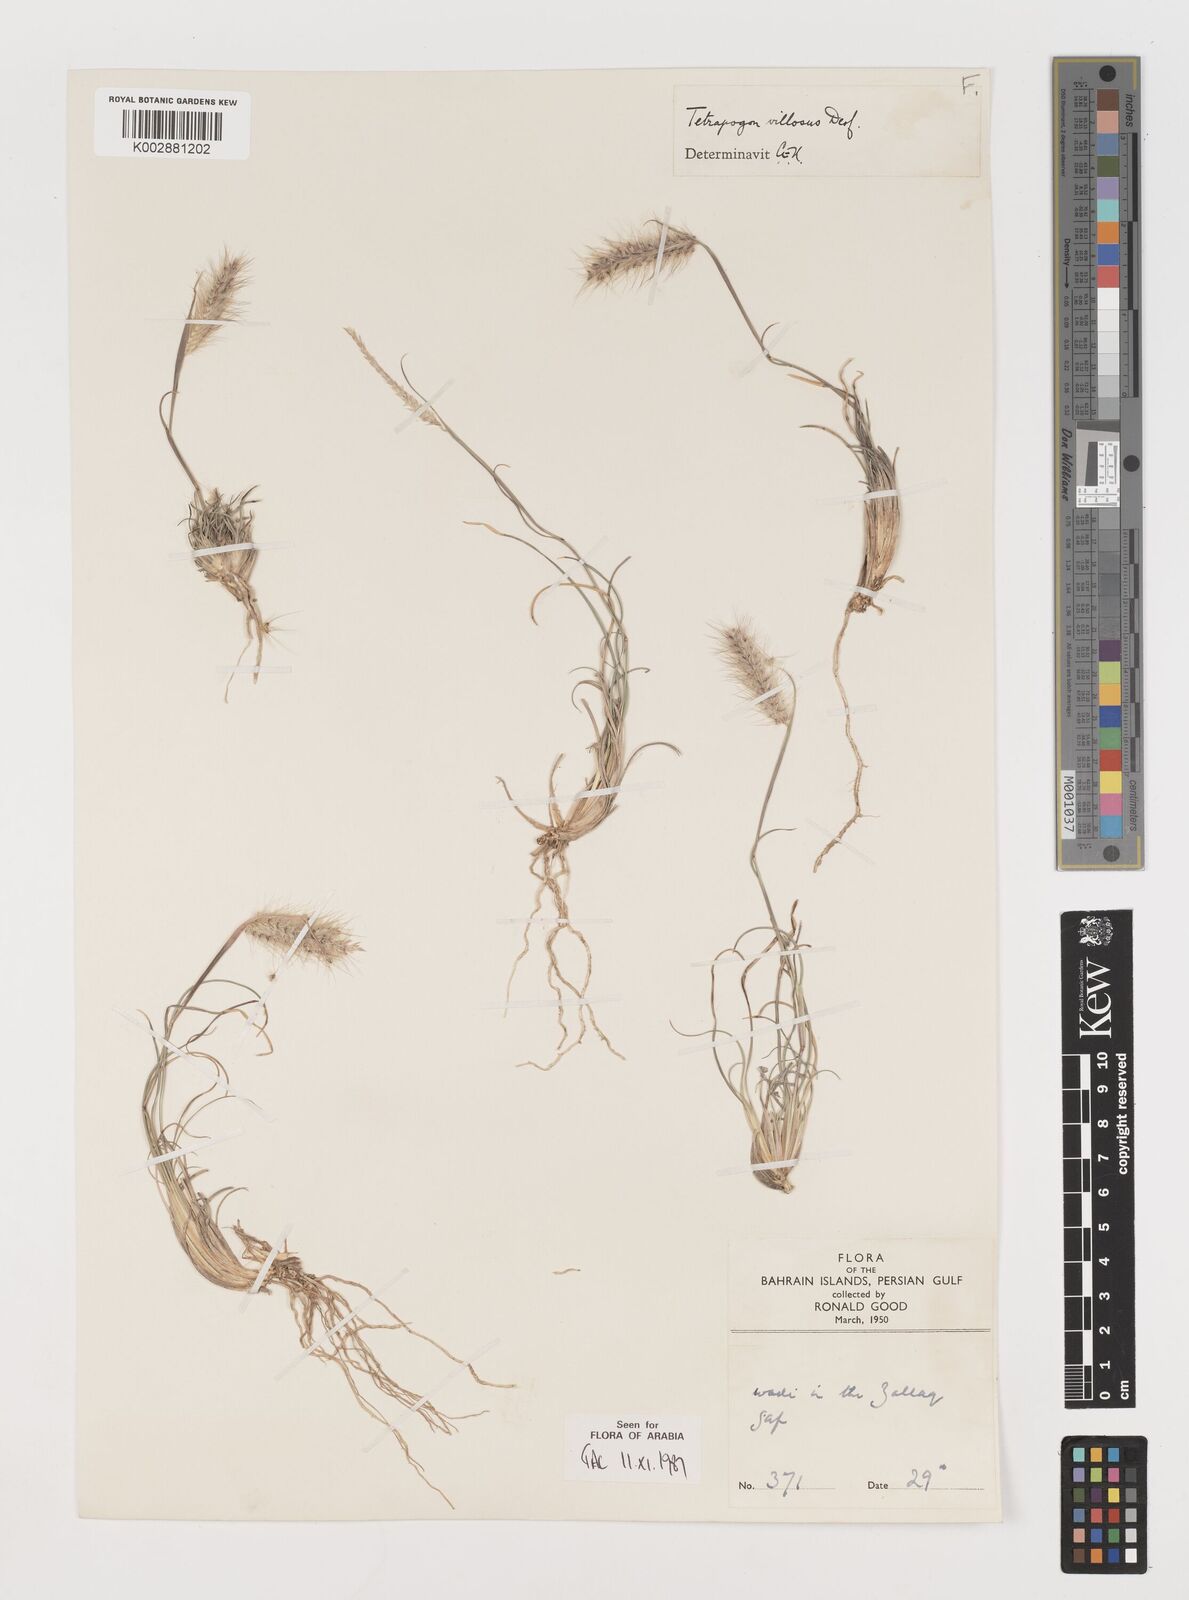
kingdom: Plantae
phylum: Tracheophyta
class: Liliopsida
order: Poales
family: Poaceae
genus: Tetrapogon
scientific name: Tetrapogon villosus
